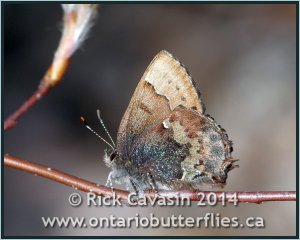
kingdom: Animalia
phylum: Arthropoda
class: Insecta
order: Lepidoptera
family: Lycaenidae
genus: Incisalia
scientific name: Incisalia henrici
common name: Henry's Elfin
